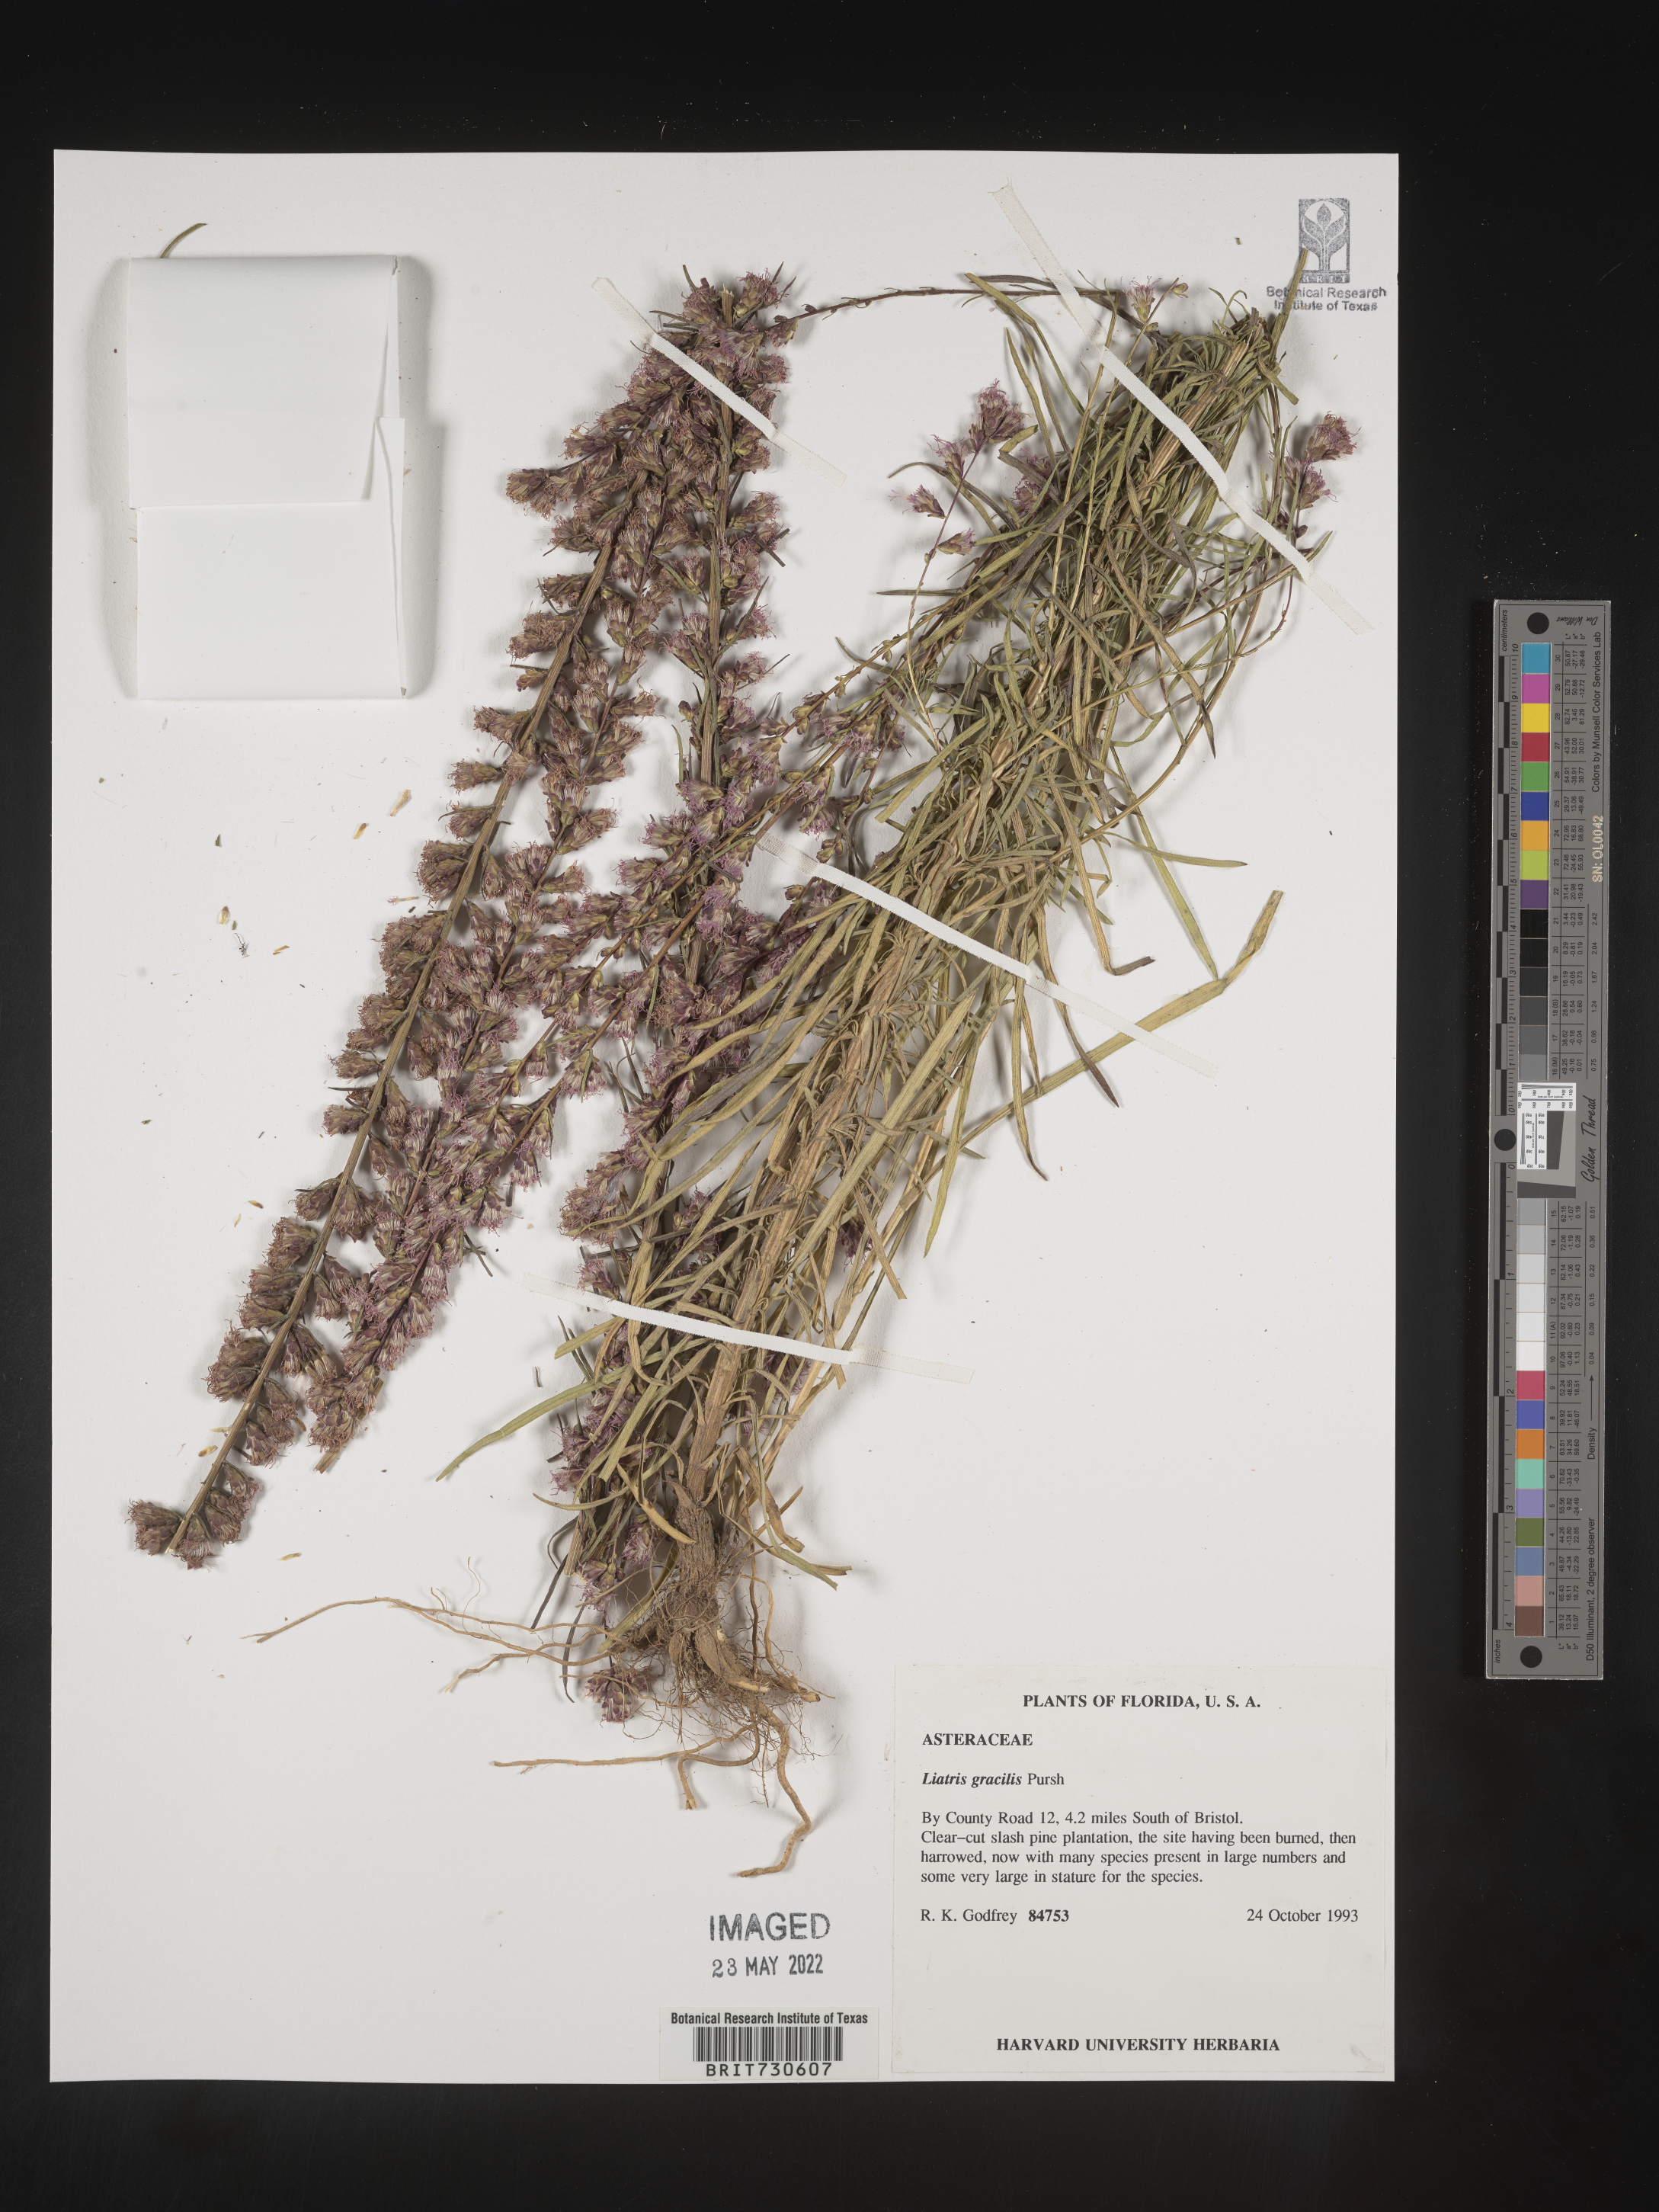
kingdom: Plantae
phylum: Tracheophyta
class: Magnoliopsida
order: Asterales
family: Asteraceae
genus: Liatris
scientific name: Liatris gracilis
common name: Slender gayfeather
